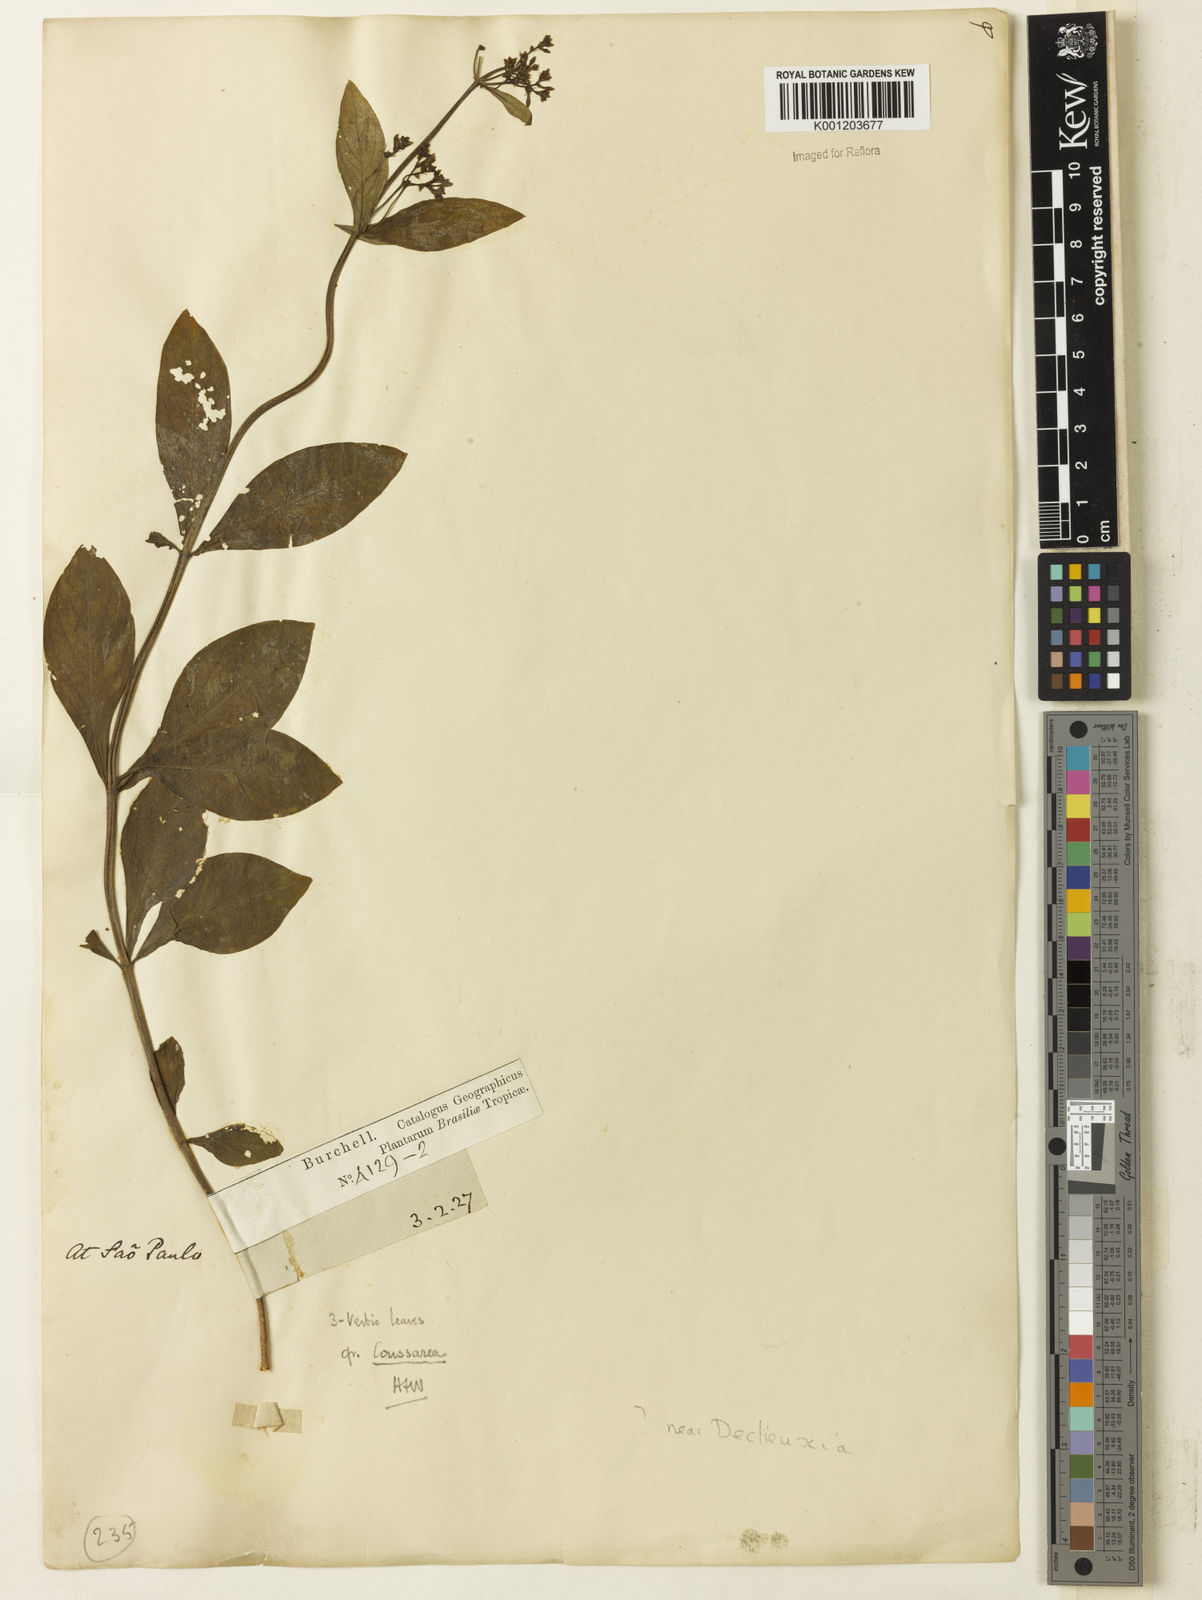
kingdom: Plantae
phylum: Tracheophyta
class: Magnoliopsida
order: Gentianales
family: Rubiaceae
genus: Declieuxia
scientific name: Declieuxia
